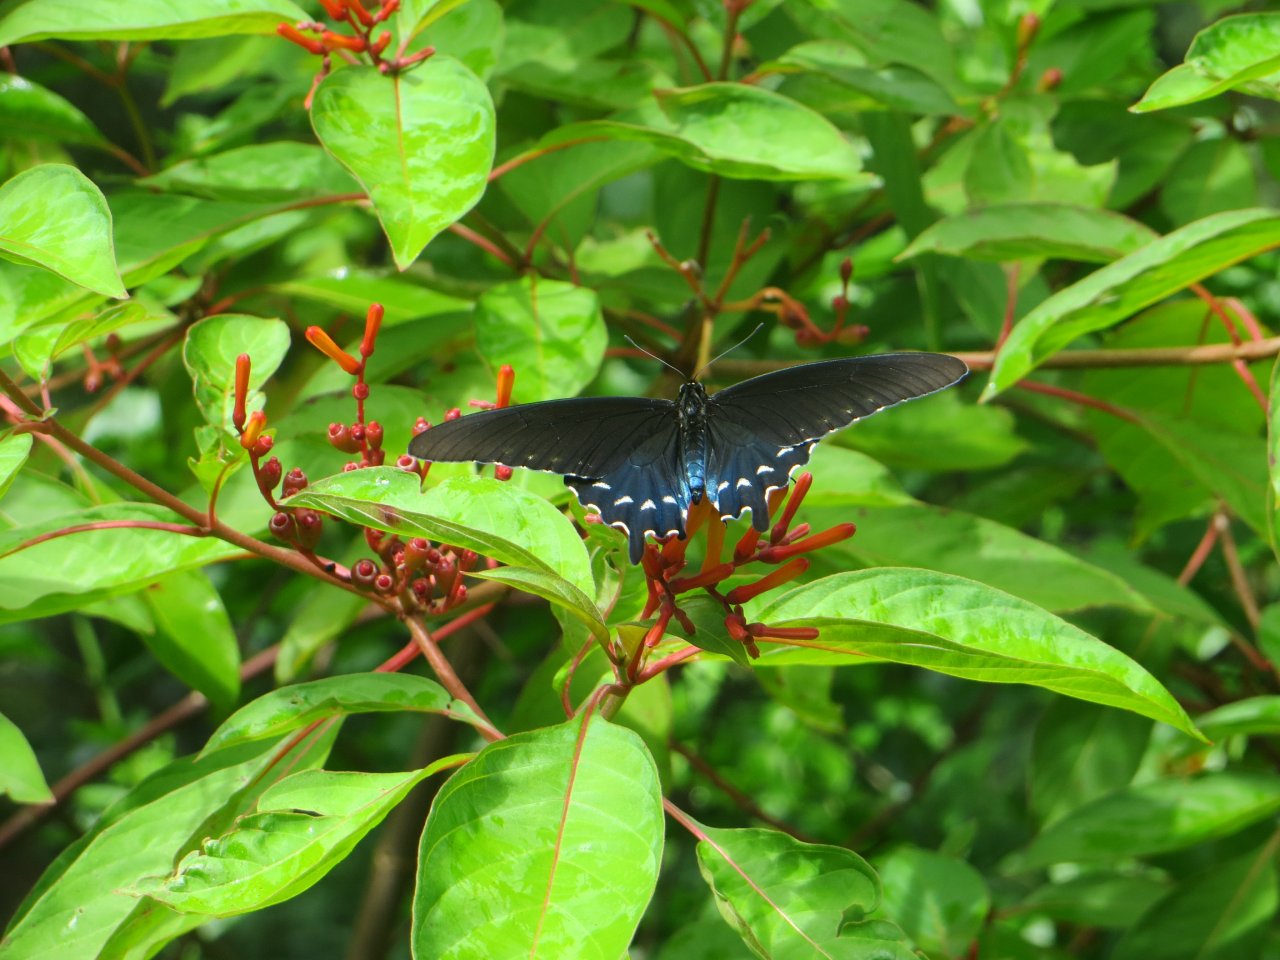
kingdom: Animalia
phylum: Arthropoda
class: Insecta
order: Lepidoptera
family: Papilionidae
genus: Battus
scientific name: Battus philenor
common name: Pipevine Swallowtail
